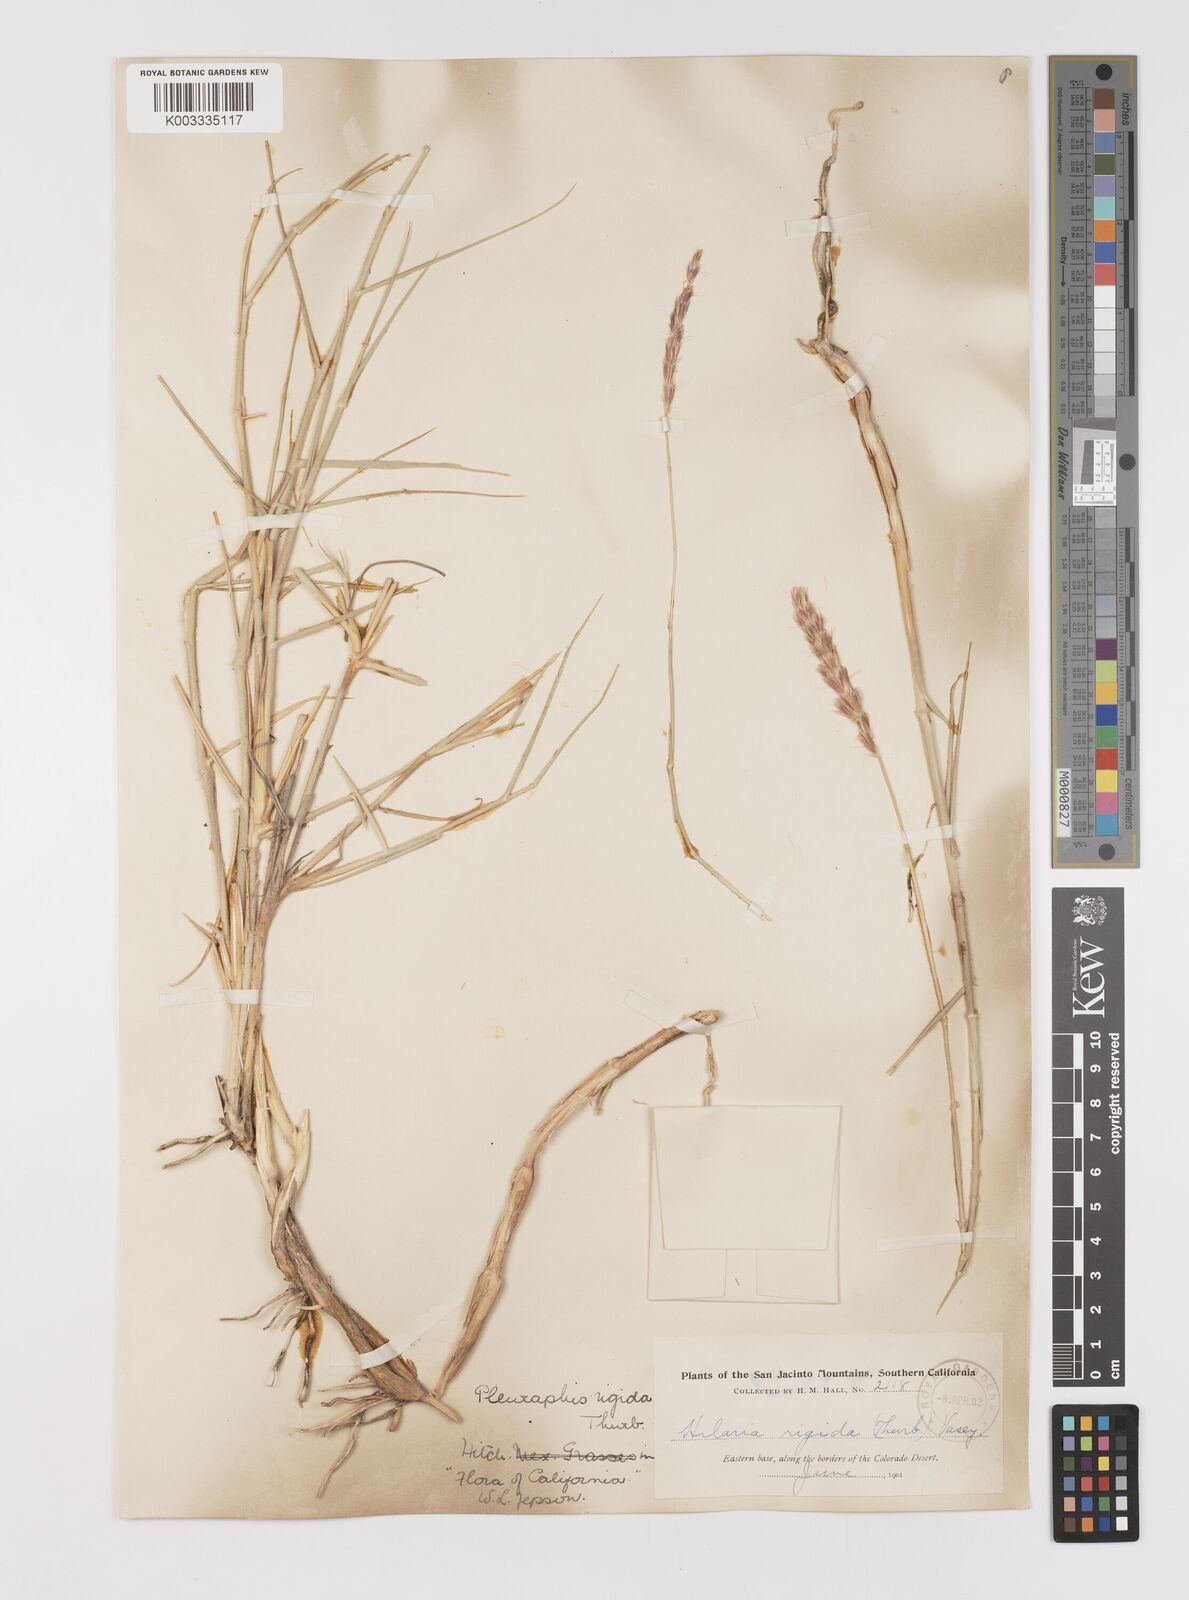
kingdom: Plantae
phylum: Tracheophyta
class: Liliopsida
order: Poales
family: Poaceae
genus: Hilaria
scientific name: Hilaria rigida
